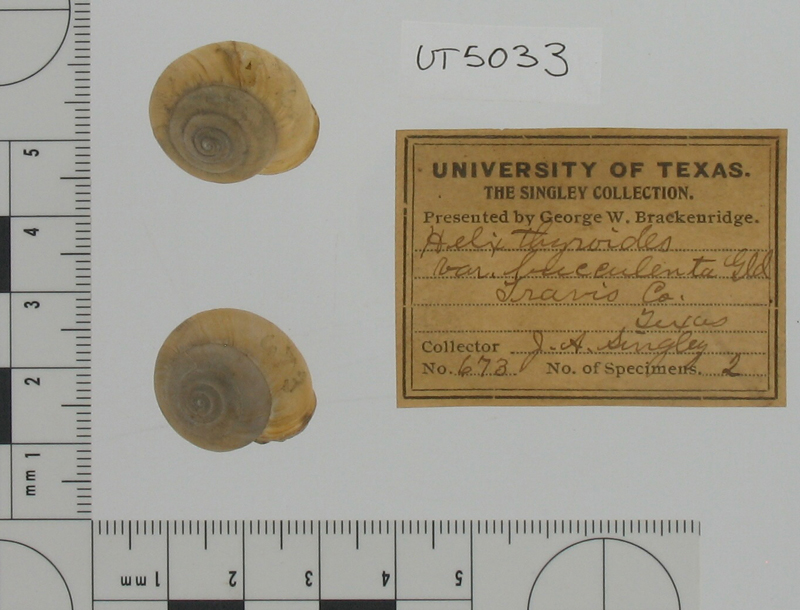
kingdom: Animalia
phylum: Mollusca
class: Gastropoda
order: Stylommatophora
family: Polygyridae
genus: Mesodon
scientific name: Mesodon thyroidus
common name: White-lip globe
